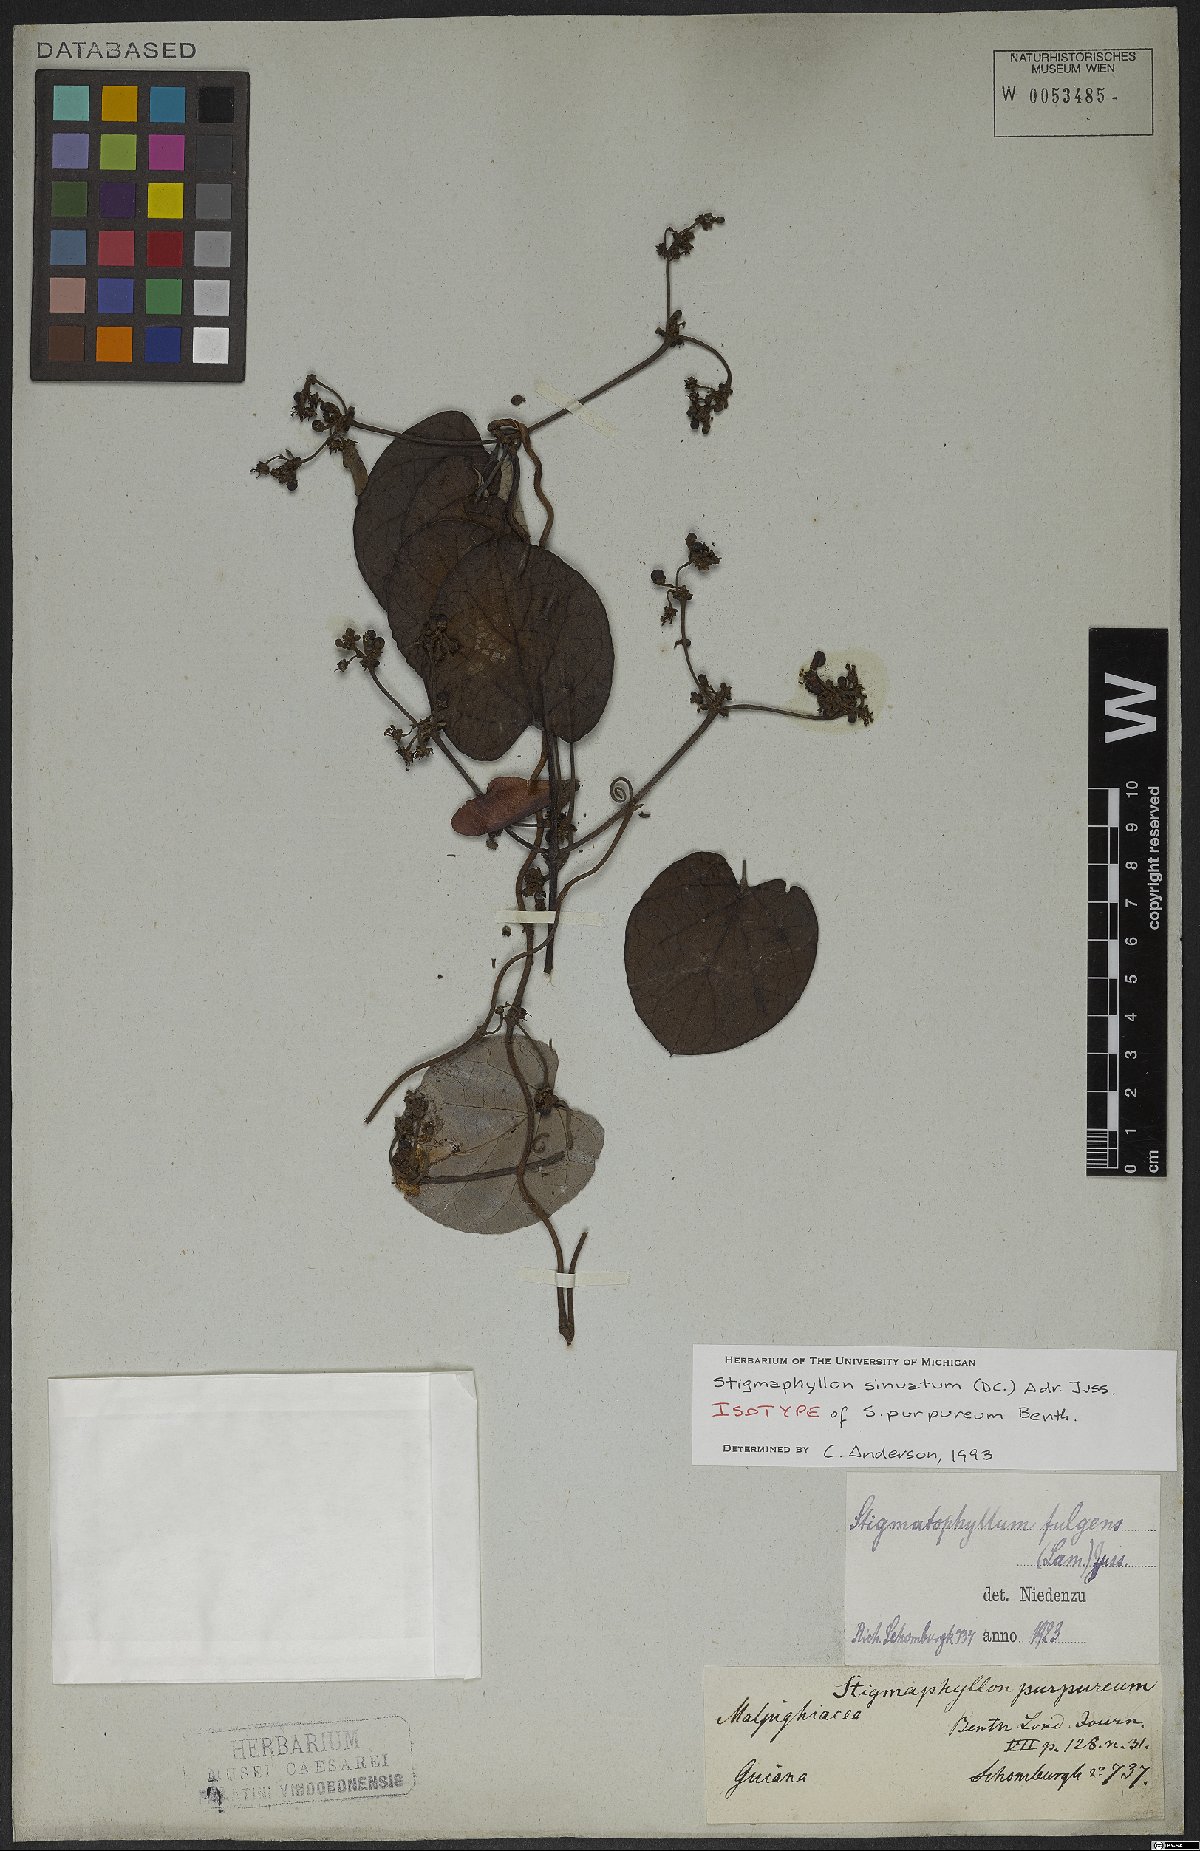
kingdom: Plantae
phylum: Tracheophyta
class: Magnoliopsida
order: Malpighiales
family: Malpighiaceae
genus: Stigmaphyllon
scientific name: Stigmaphyllon sinuatum
